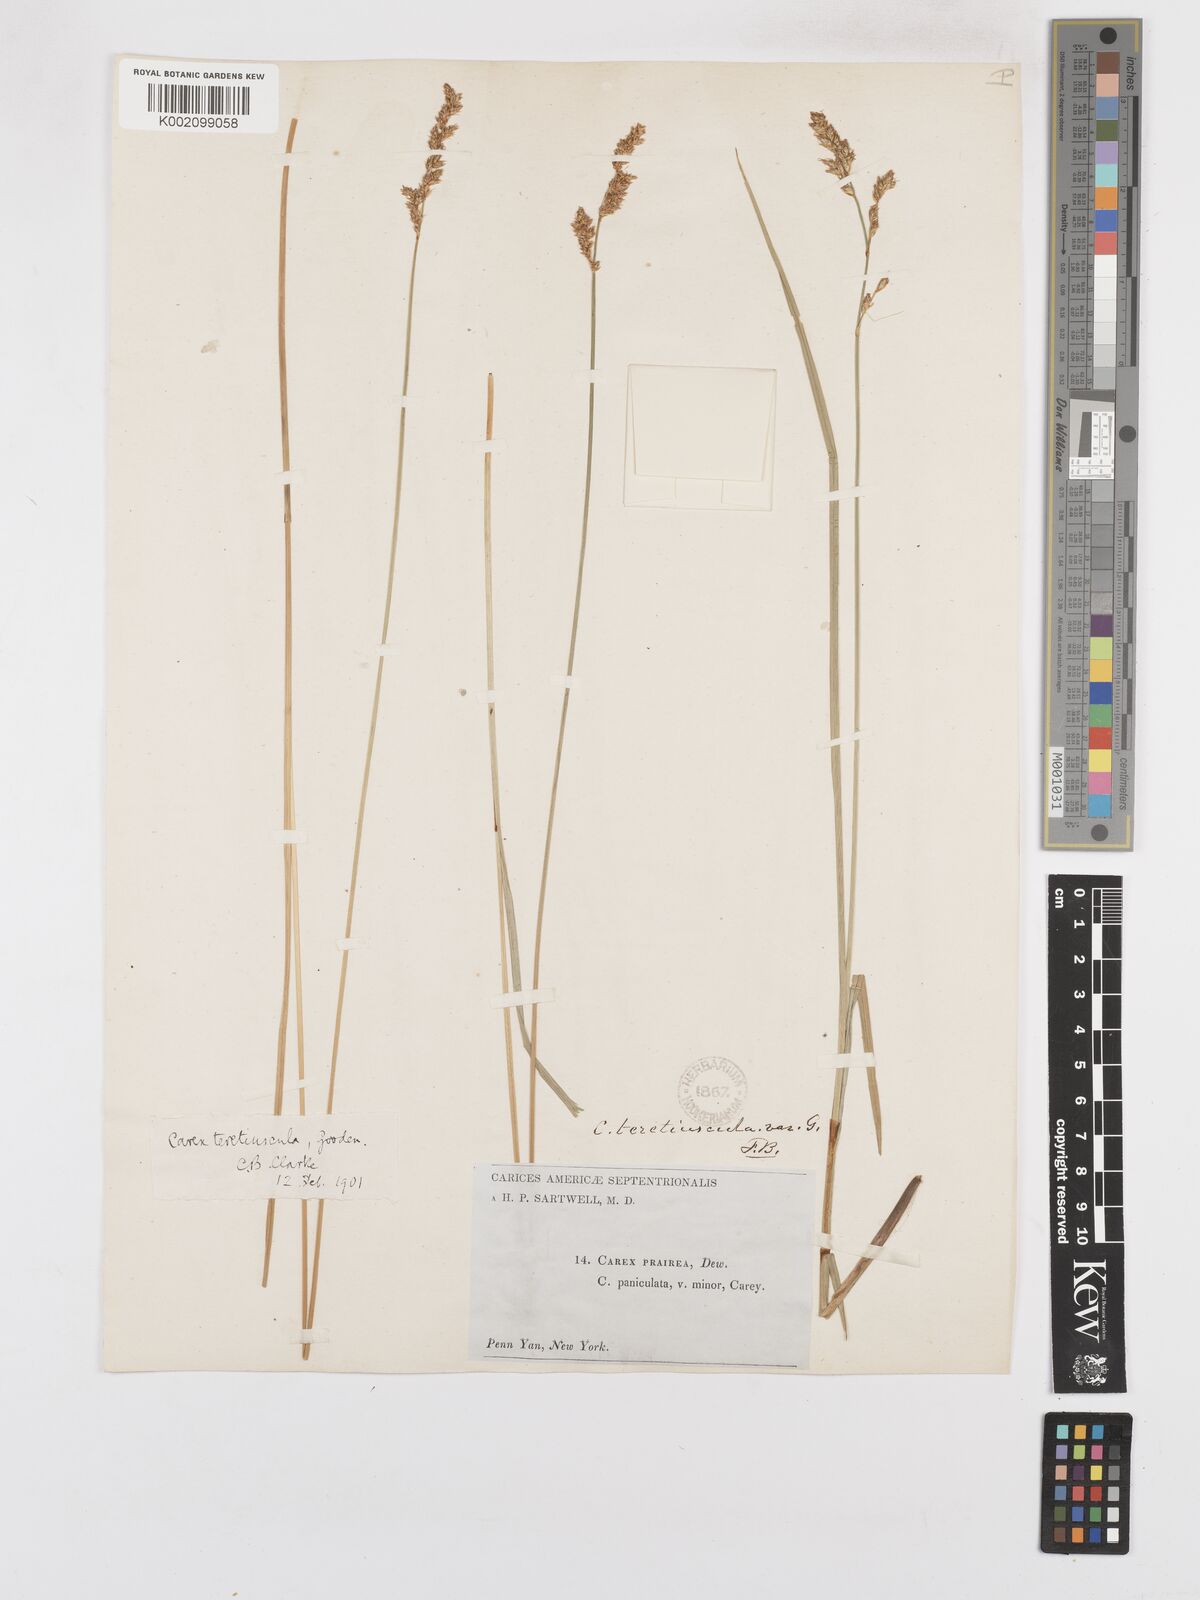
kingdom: Plantae
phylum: Tracheophyta
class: Liliopsida
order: Poales
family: Cyperaceae
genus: Carex
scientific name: Carex diandra
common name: Lesser tussock-sedge
